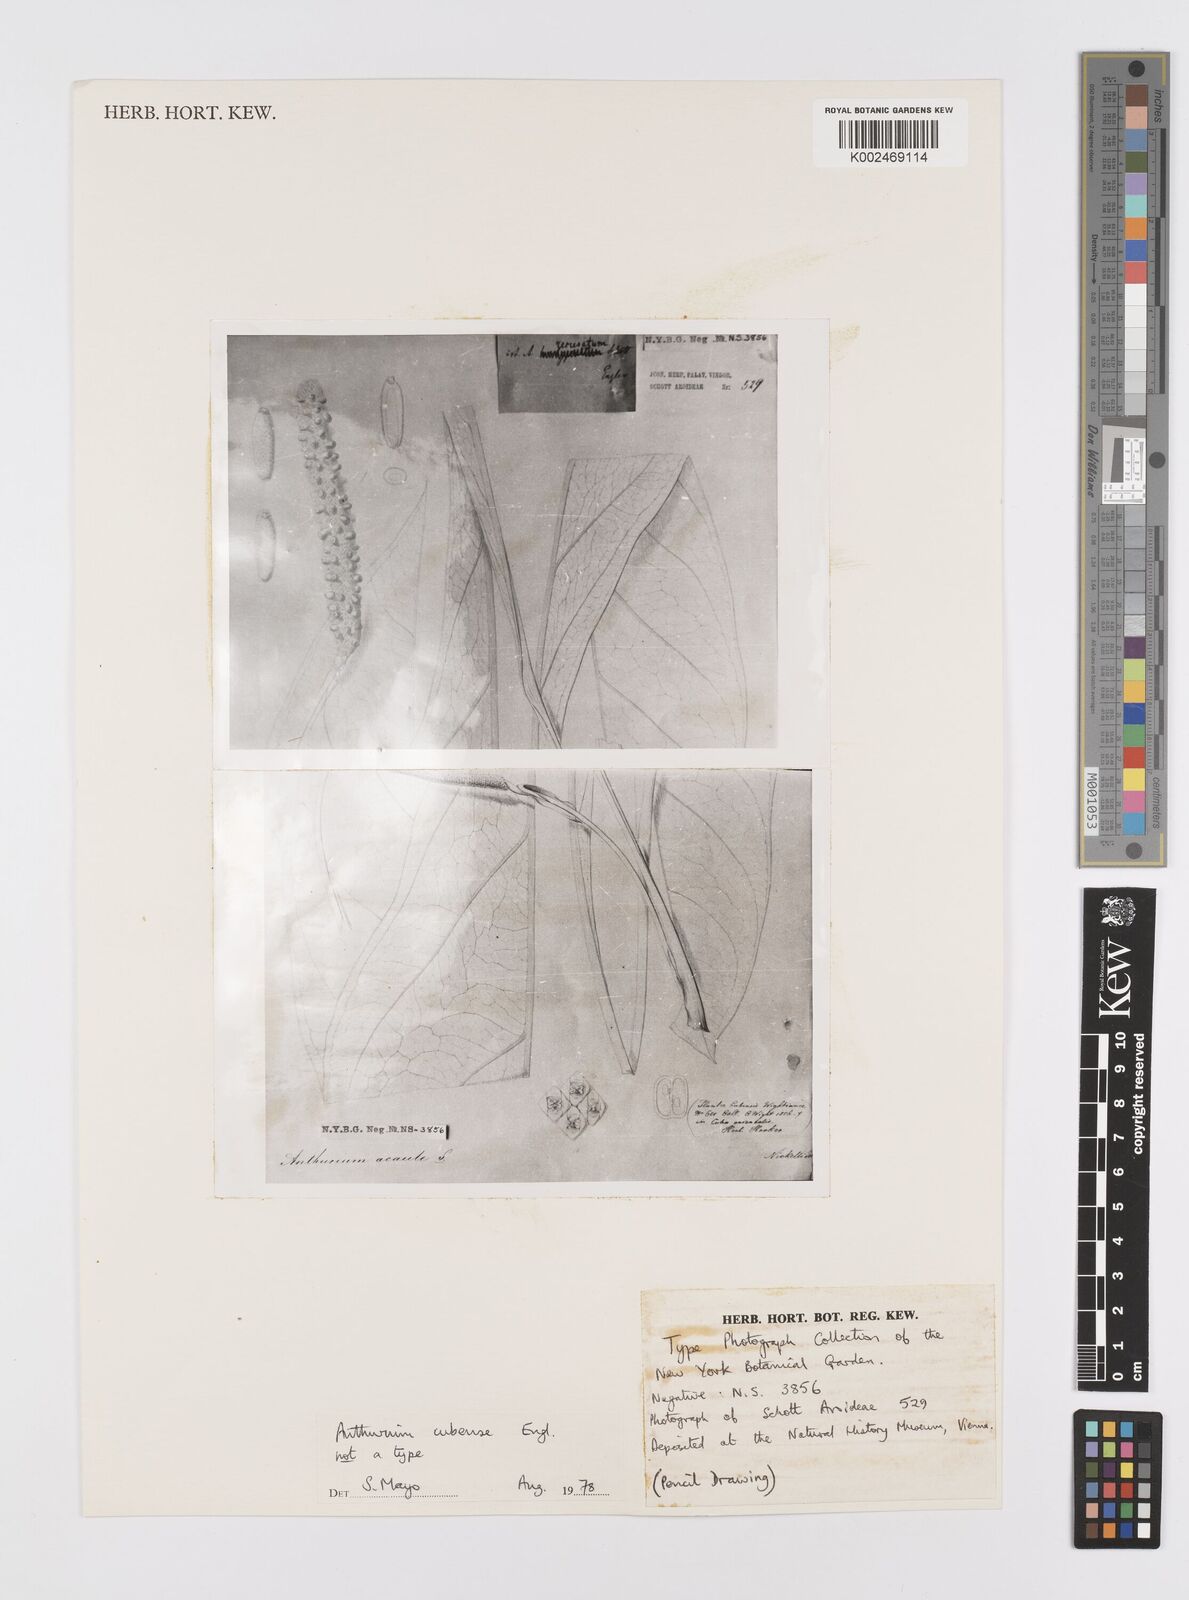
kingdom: Plantae
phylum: Tracheophyta
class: Liliopsida
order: Alismatales
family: Araceae
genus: Anthurium
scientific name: Anthurium cubense
